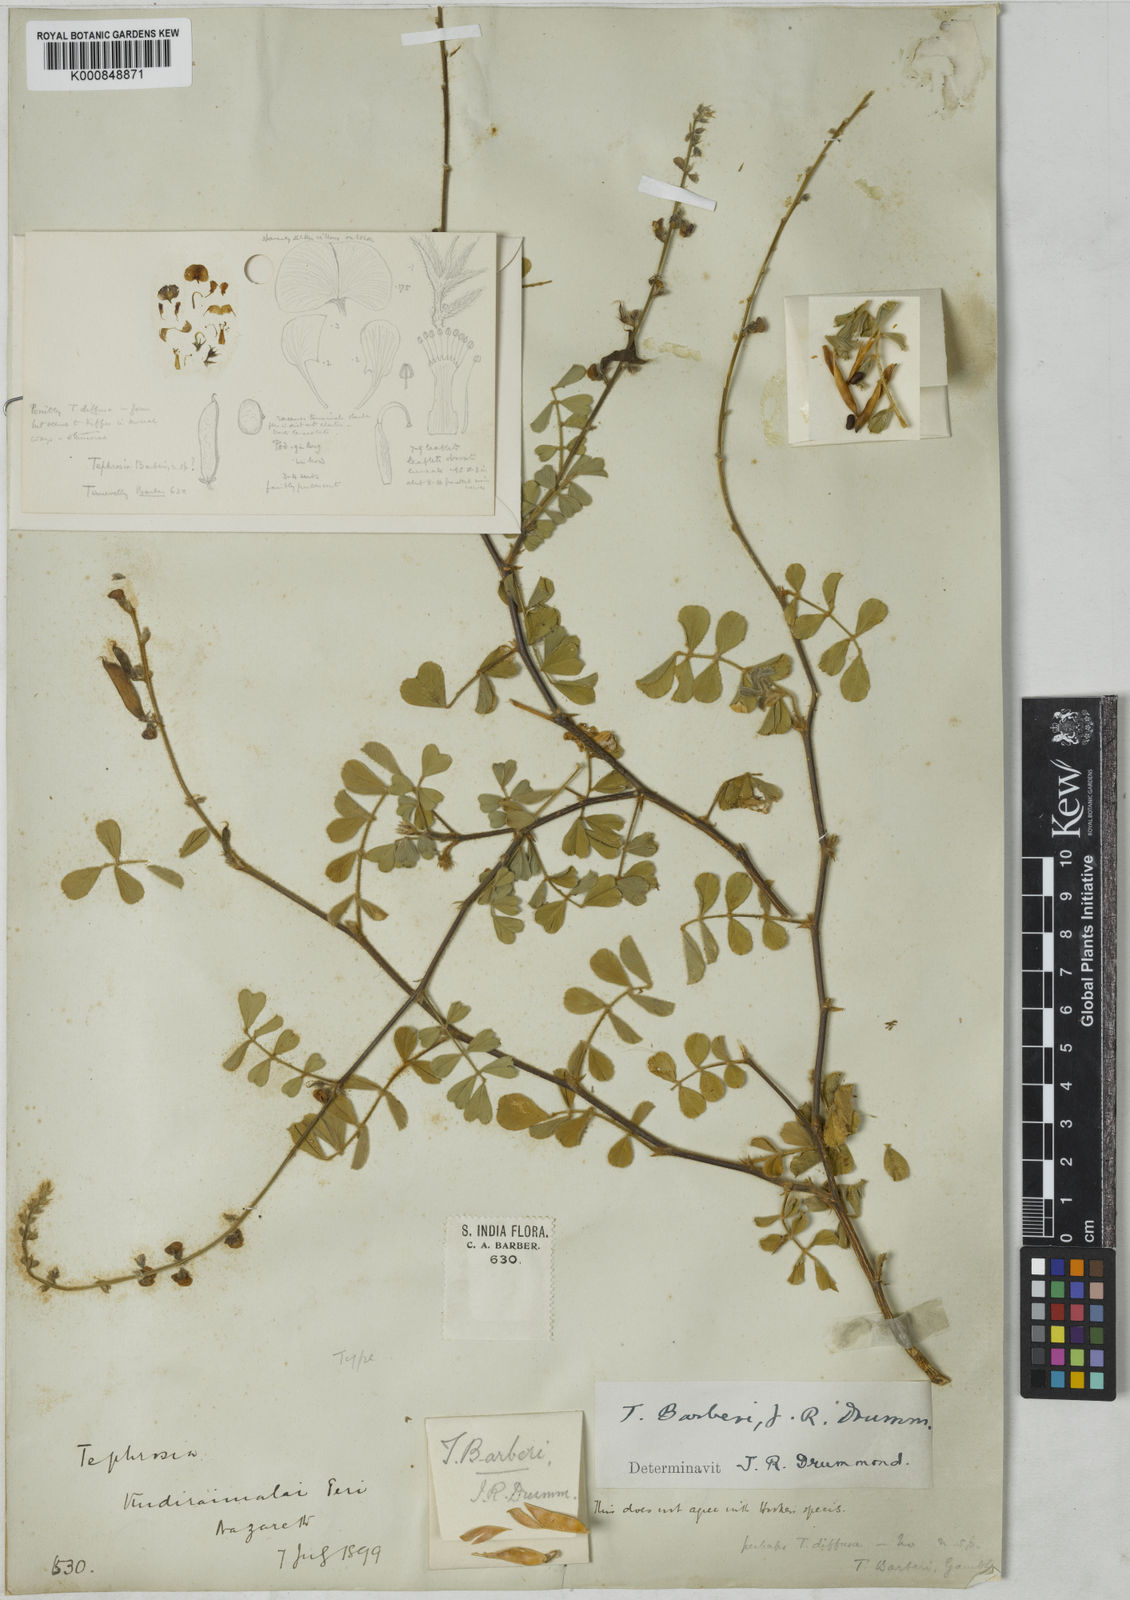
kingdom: Plantae
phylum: Tracheophyta
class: Magnoliopsida
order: Fabales
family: Fabaceae
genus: Tephrosia
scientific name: Tephrosia barberi
